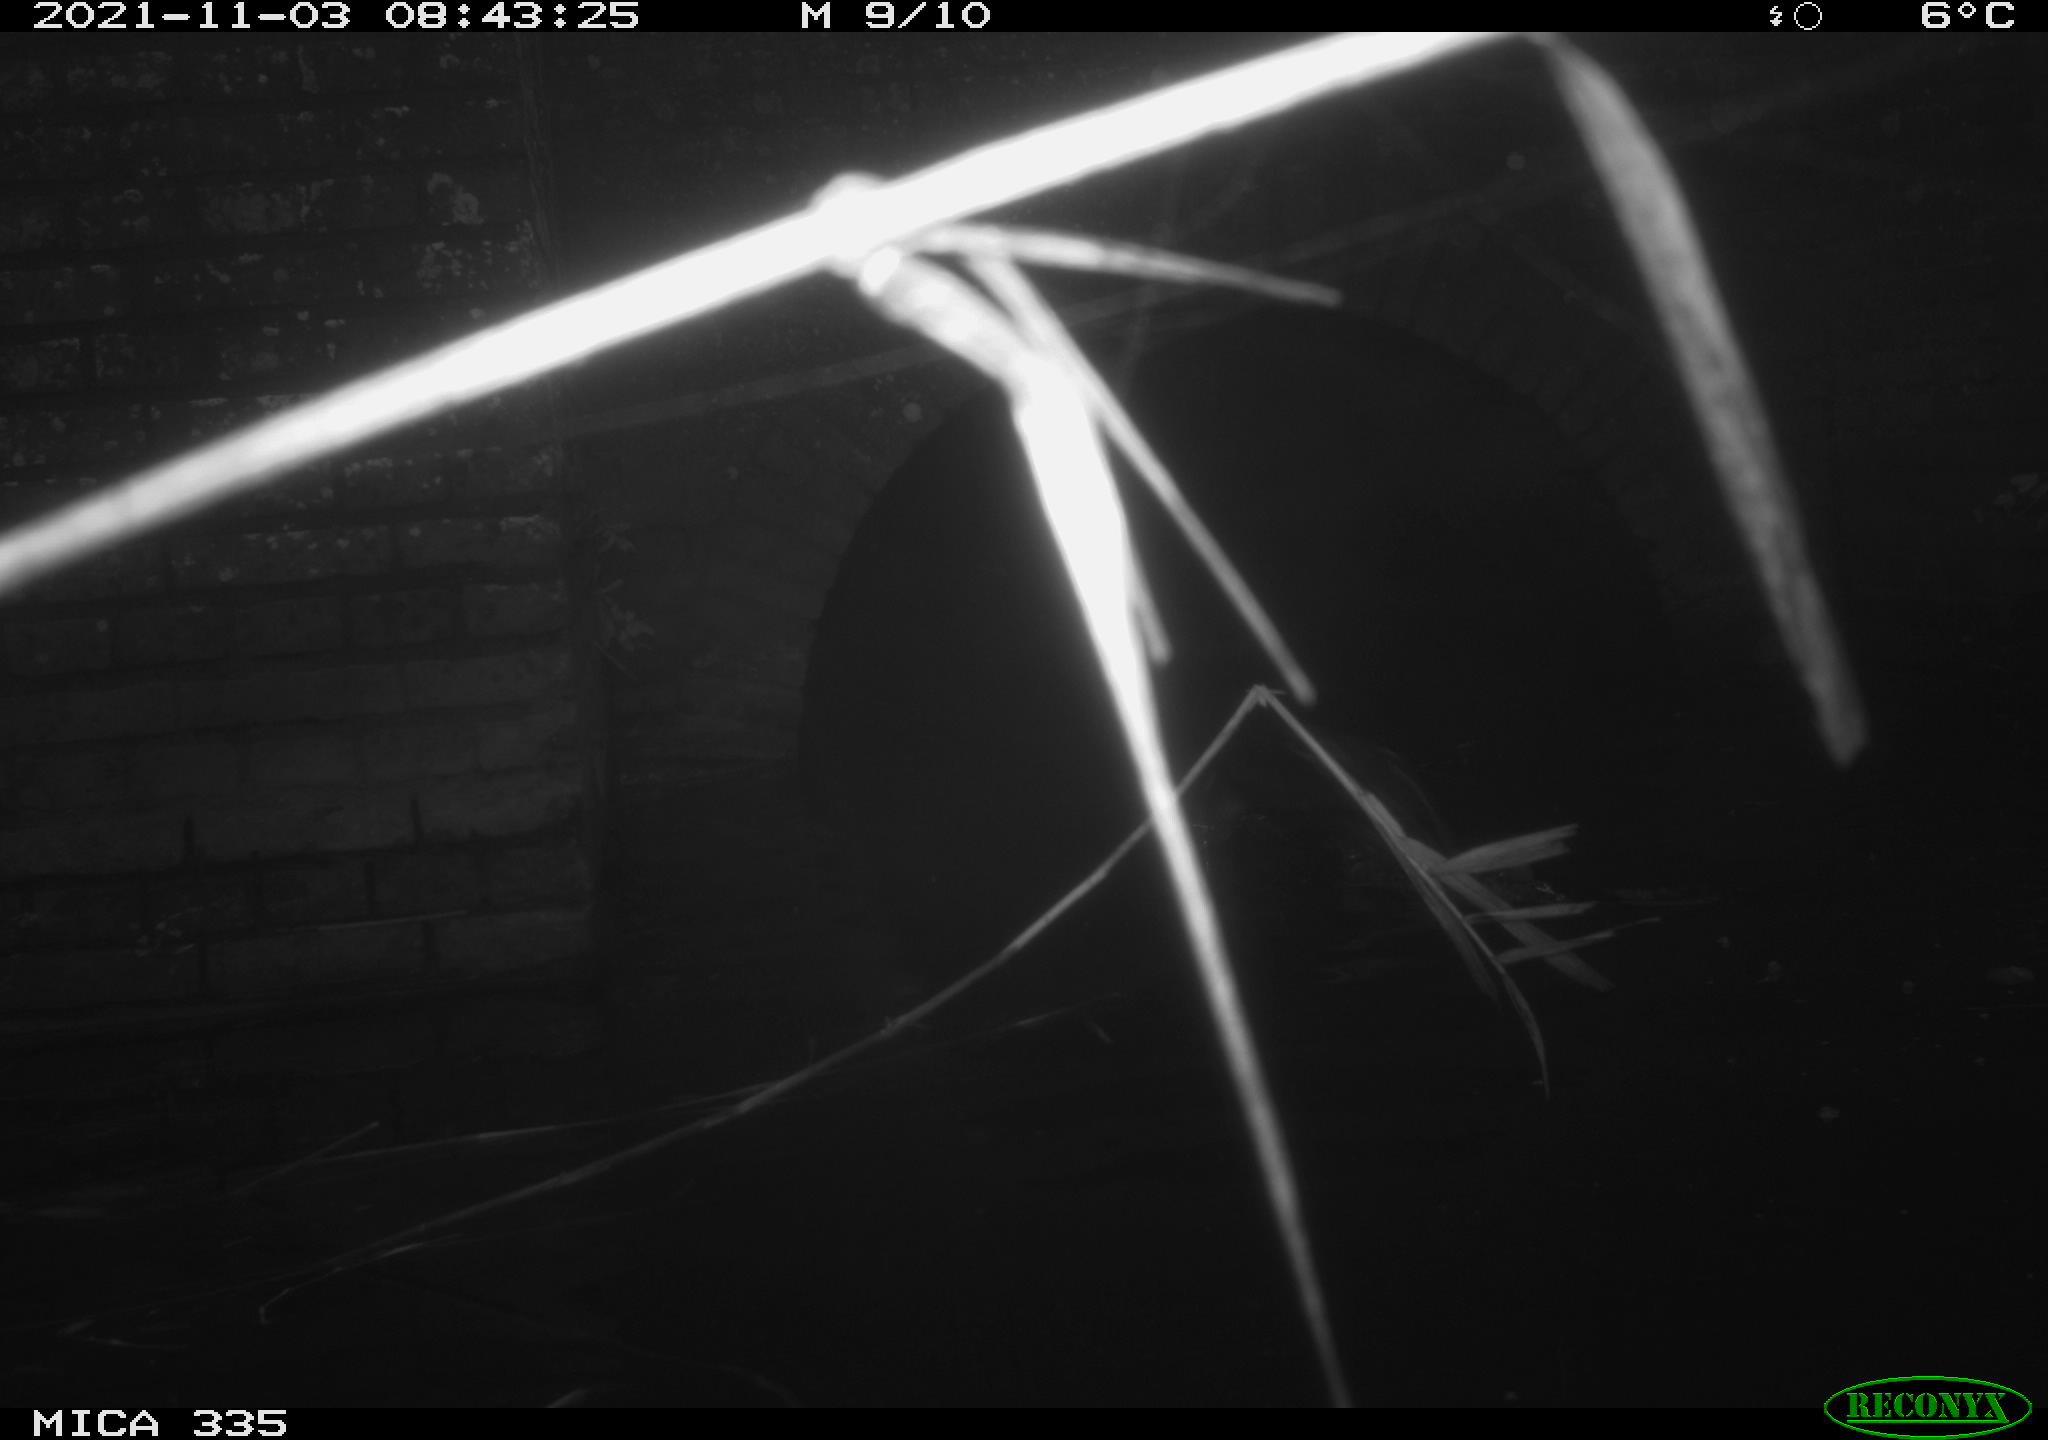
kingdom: Animalia
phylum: Chordata
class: Aves
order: Suliformes
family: Phalacrocoracidae
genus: Phalacrocorax
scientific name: Phalacrocorax carbo
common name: Great cormorant
